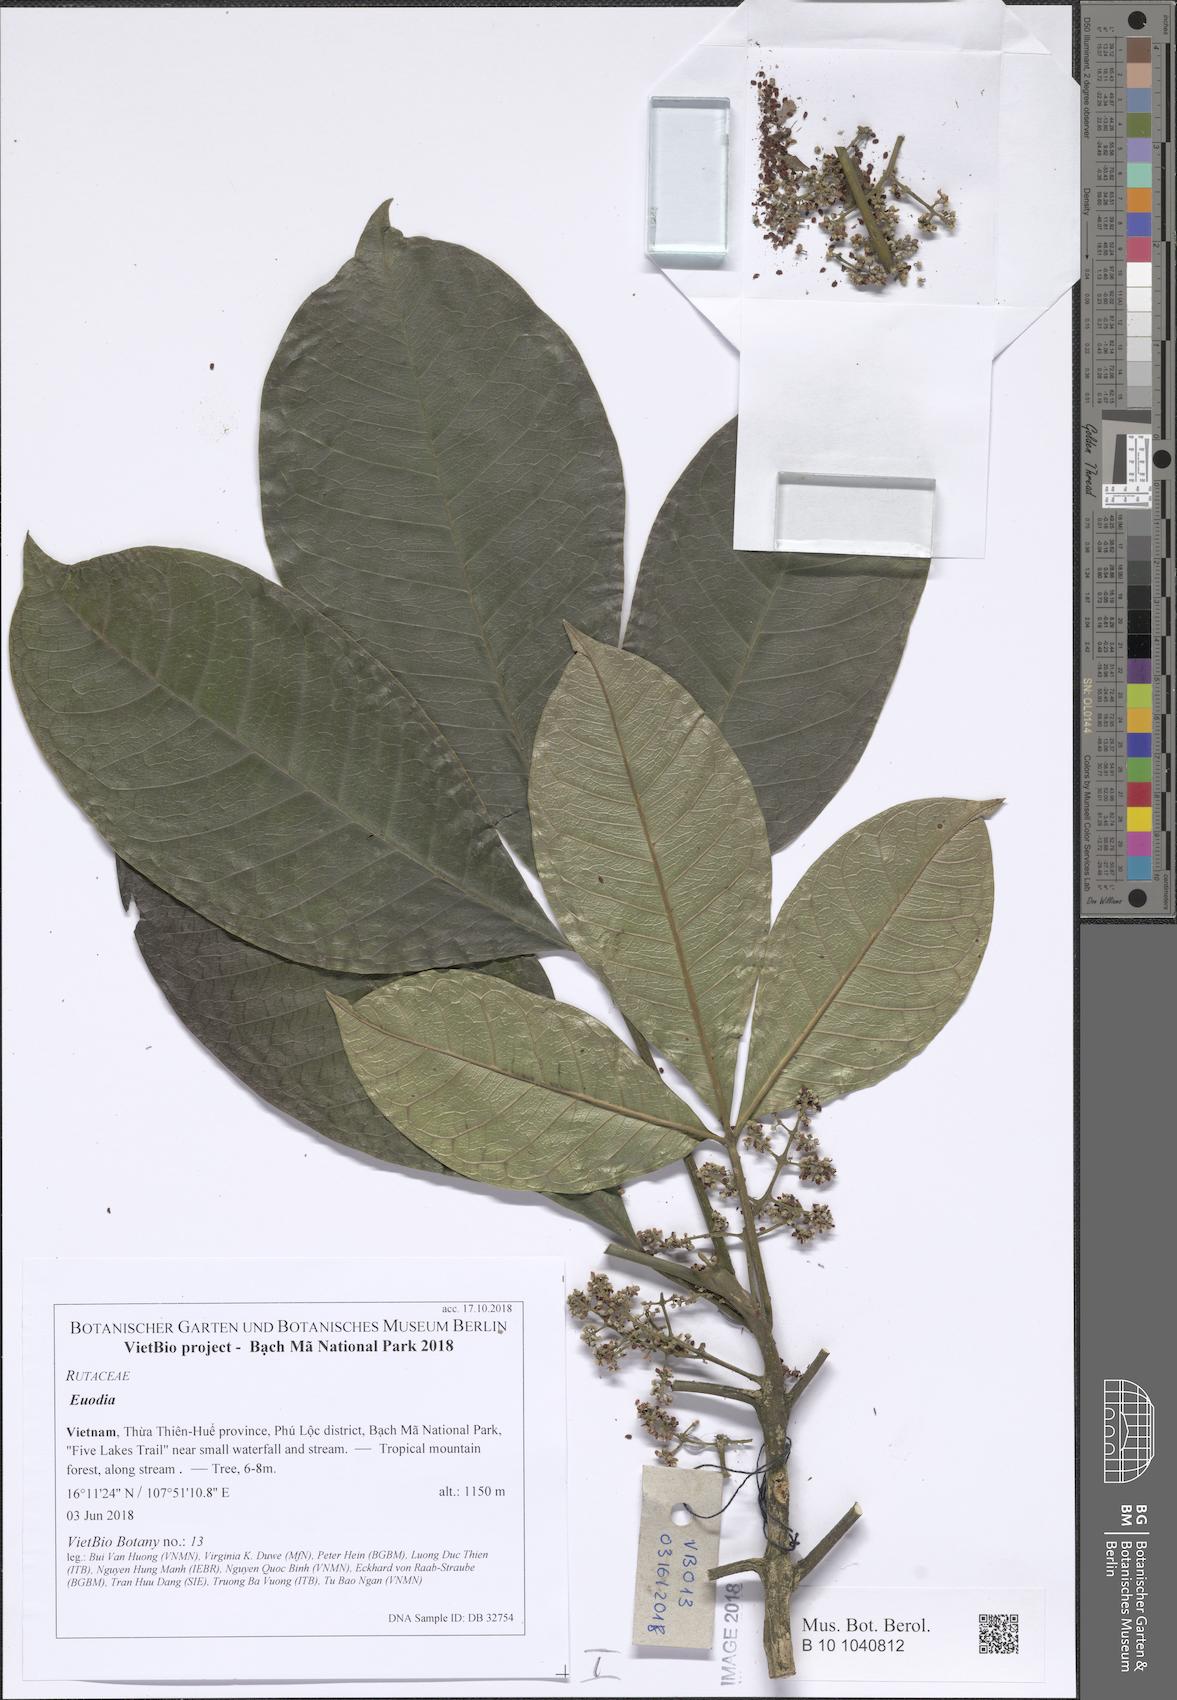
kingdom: Plantae
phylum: Tracheophyta
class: Magnoliopsida
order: Sapindales
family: Rutaceae
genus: Euodia
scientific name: Euodia
